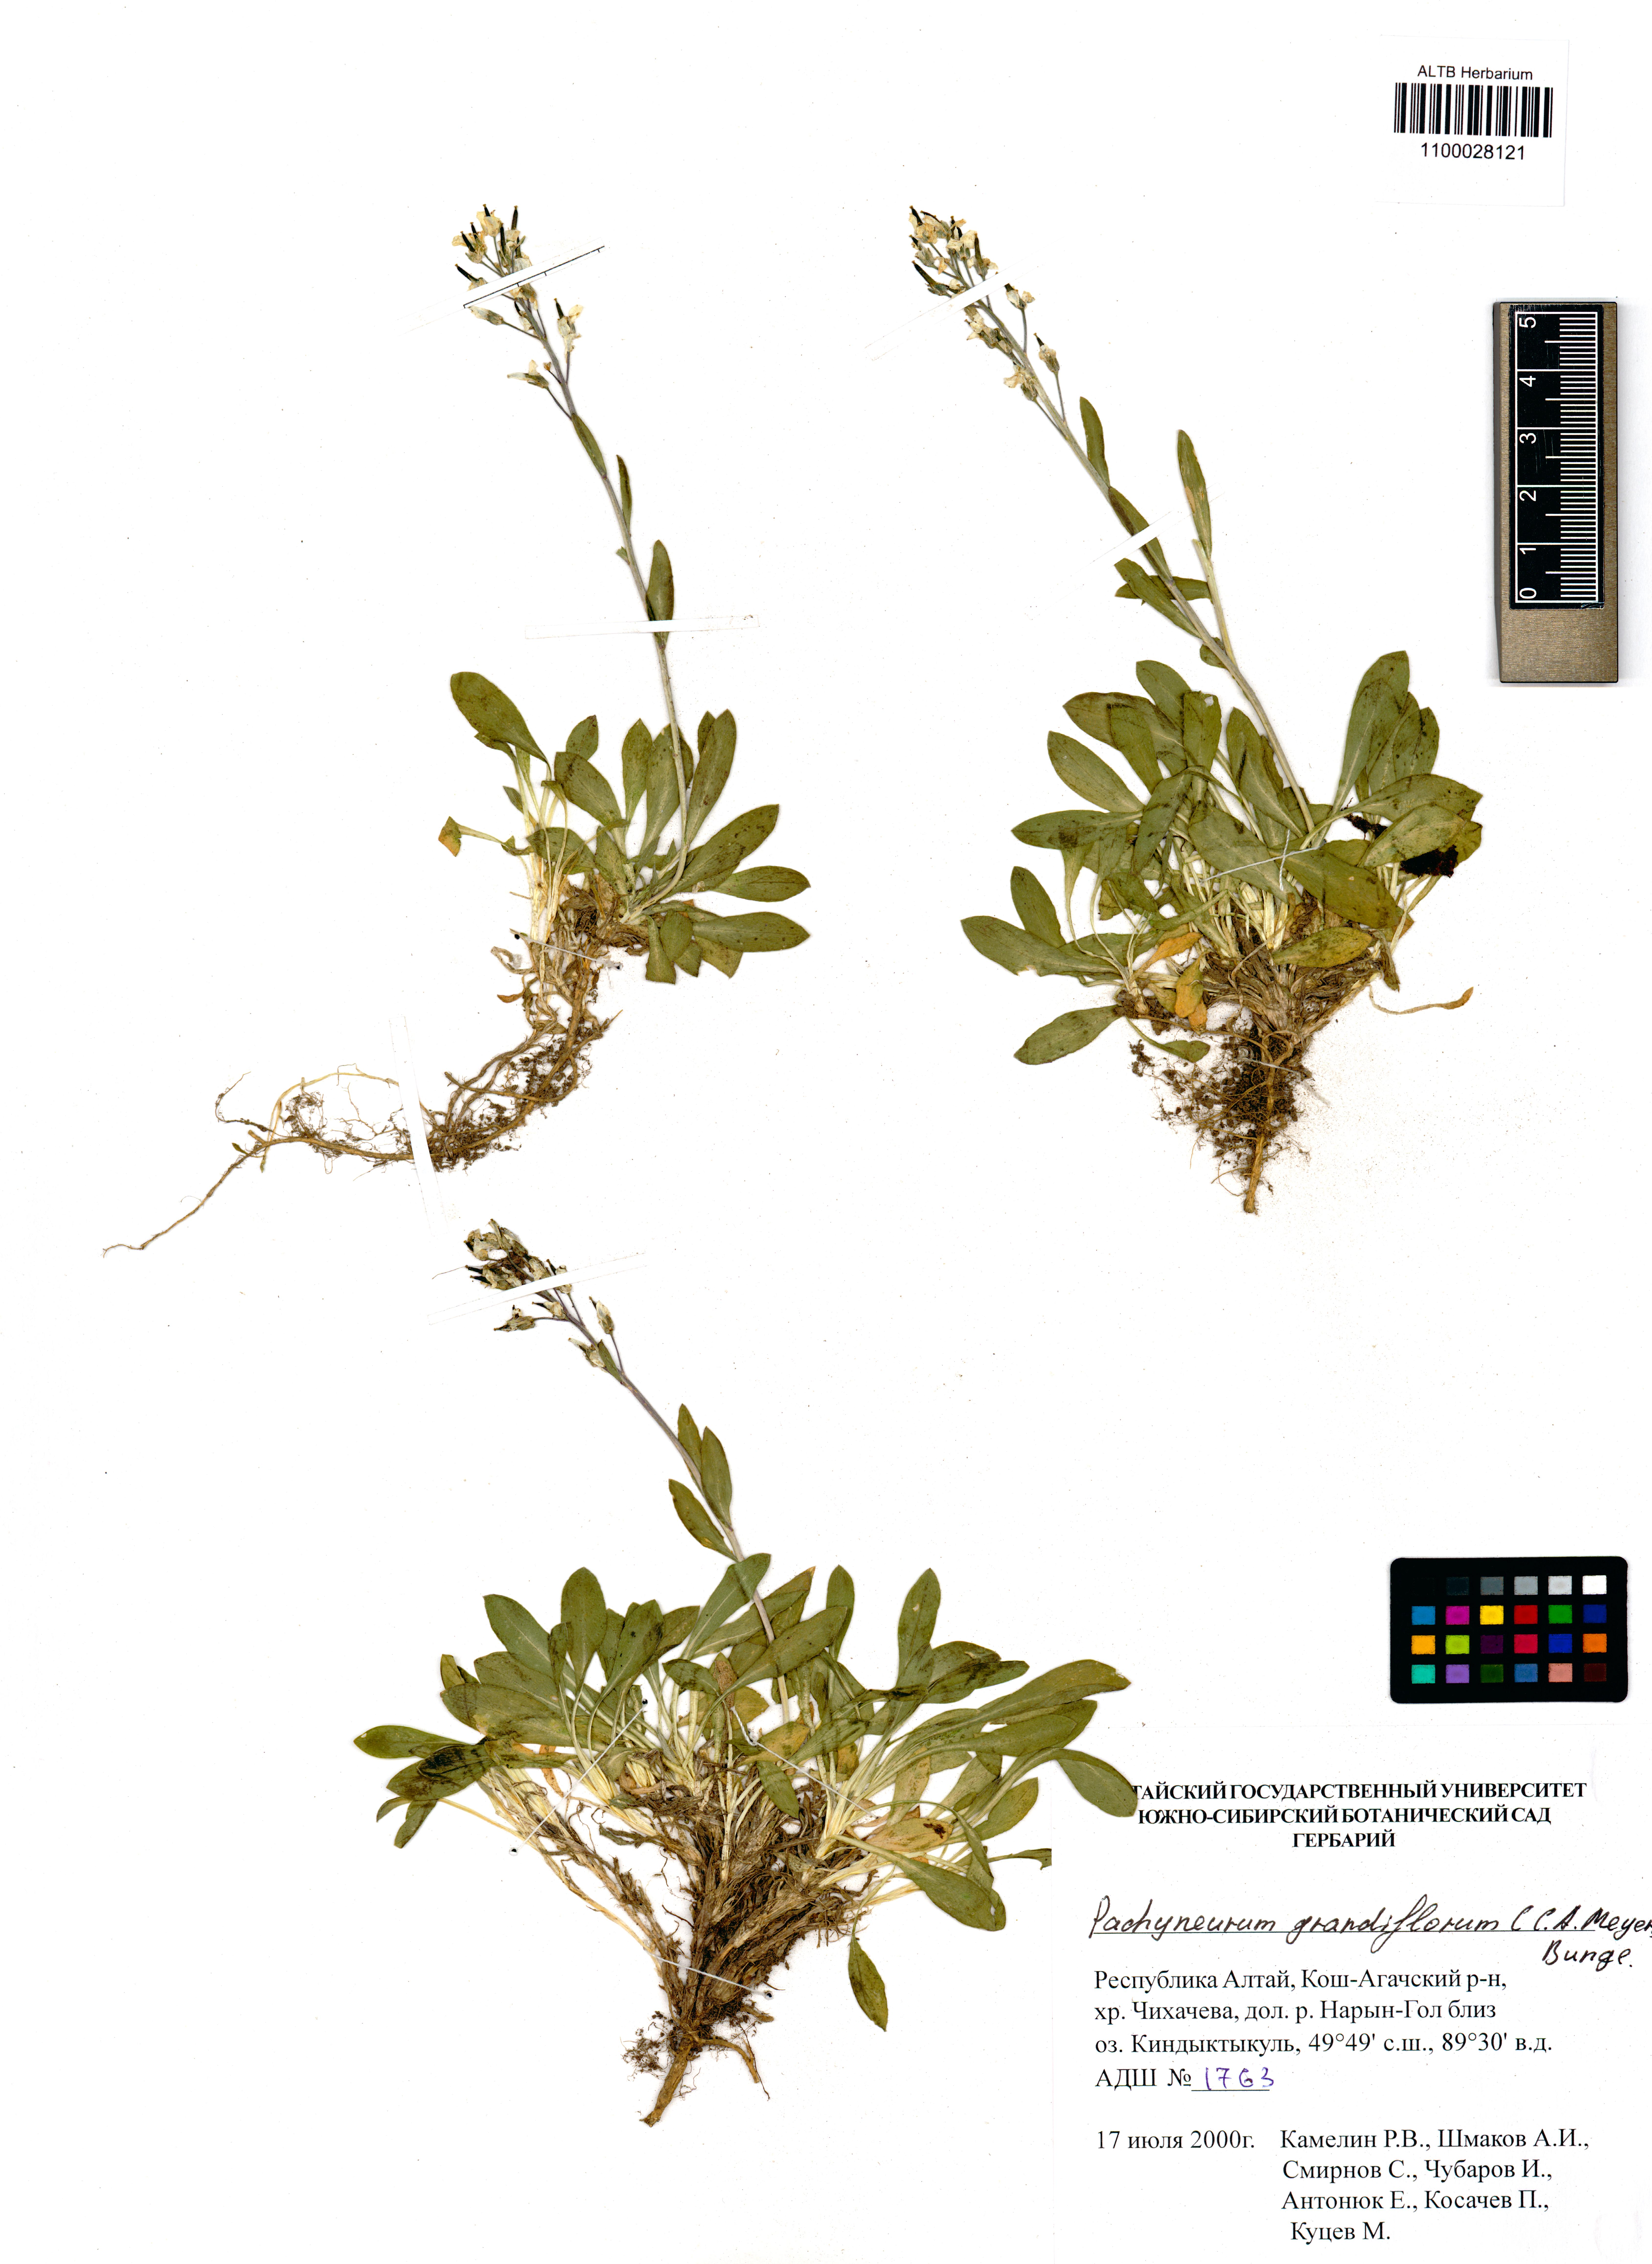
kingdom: Plantae
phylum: Tracheophyta
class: Magnoliopsida
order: Brassicales
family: Brassicaceae
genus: Pachyneurum
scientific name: Pachyneurum grandiflorum
